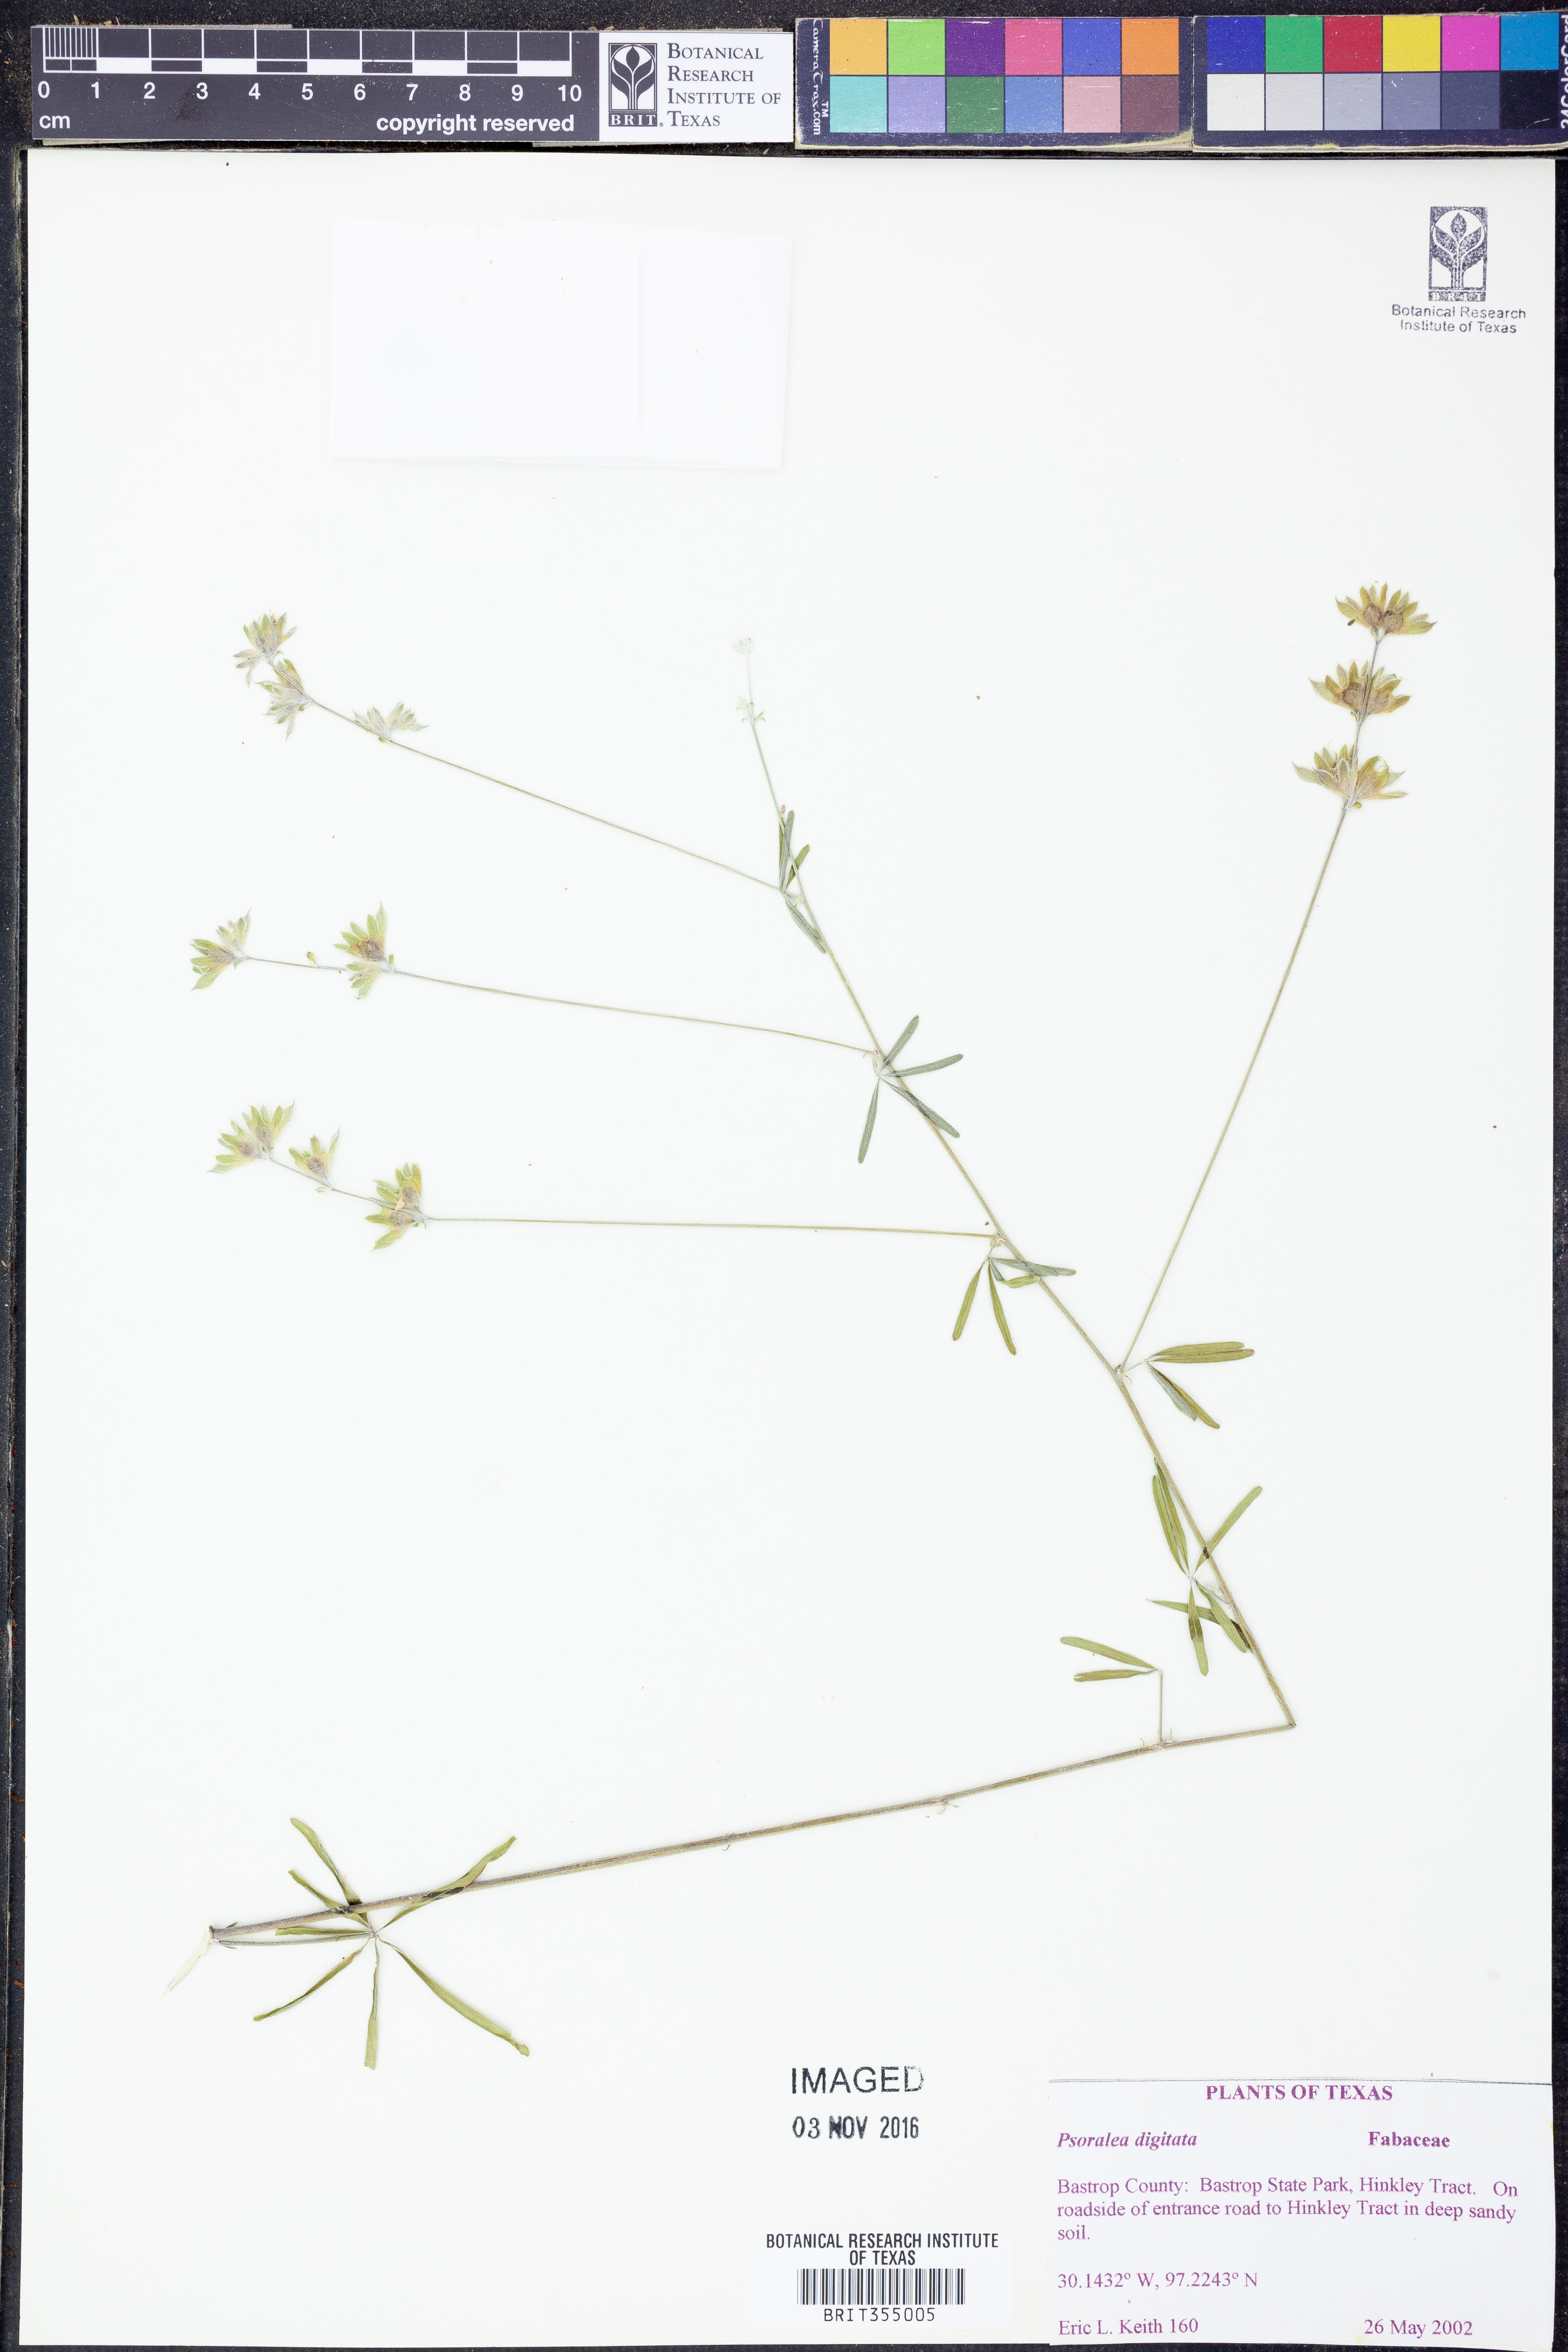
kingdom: Plantae
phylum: Tracheophyta
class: Magnoliopsida
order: Fabales
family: Fabaceae
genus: Pediomelum
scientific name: Pediomelum digitatum
